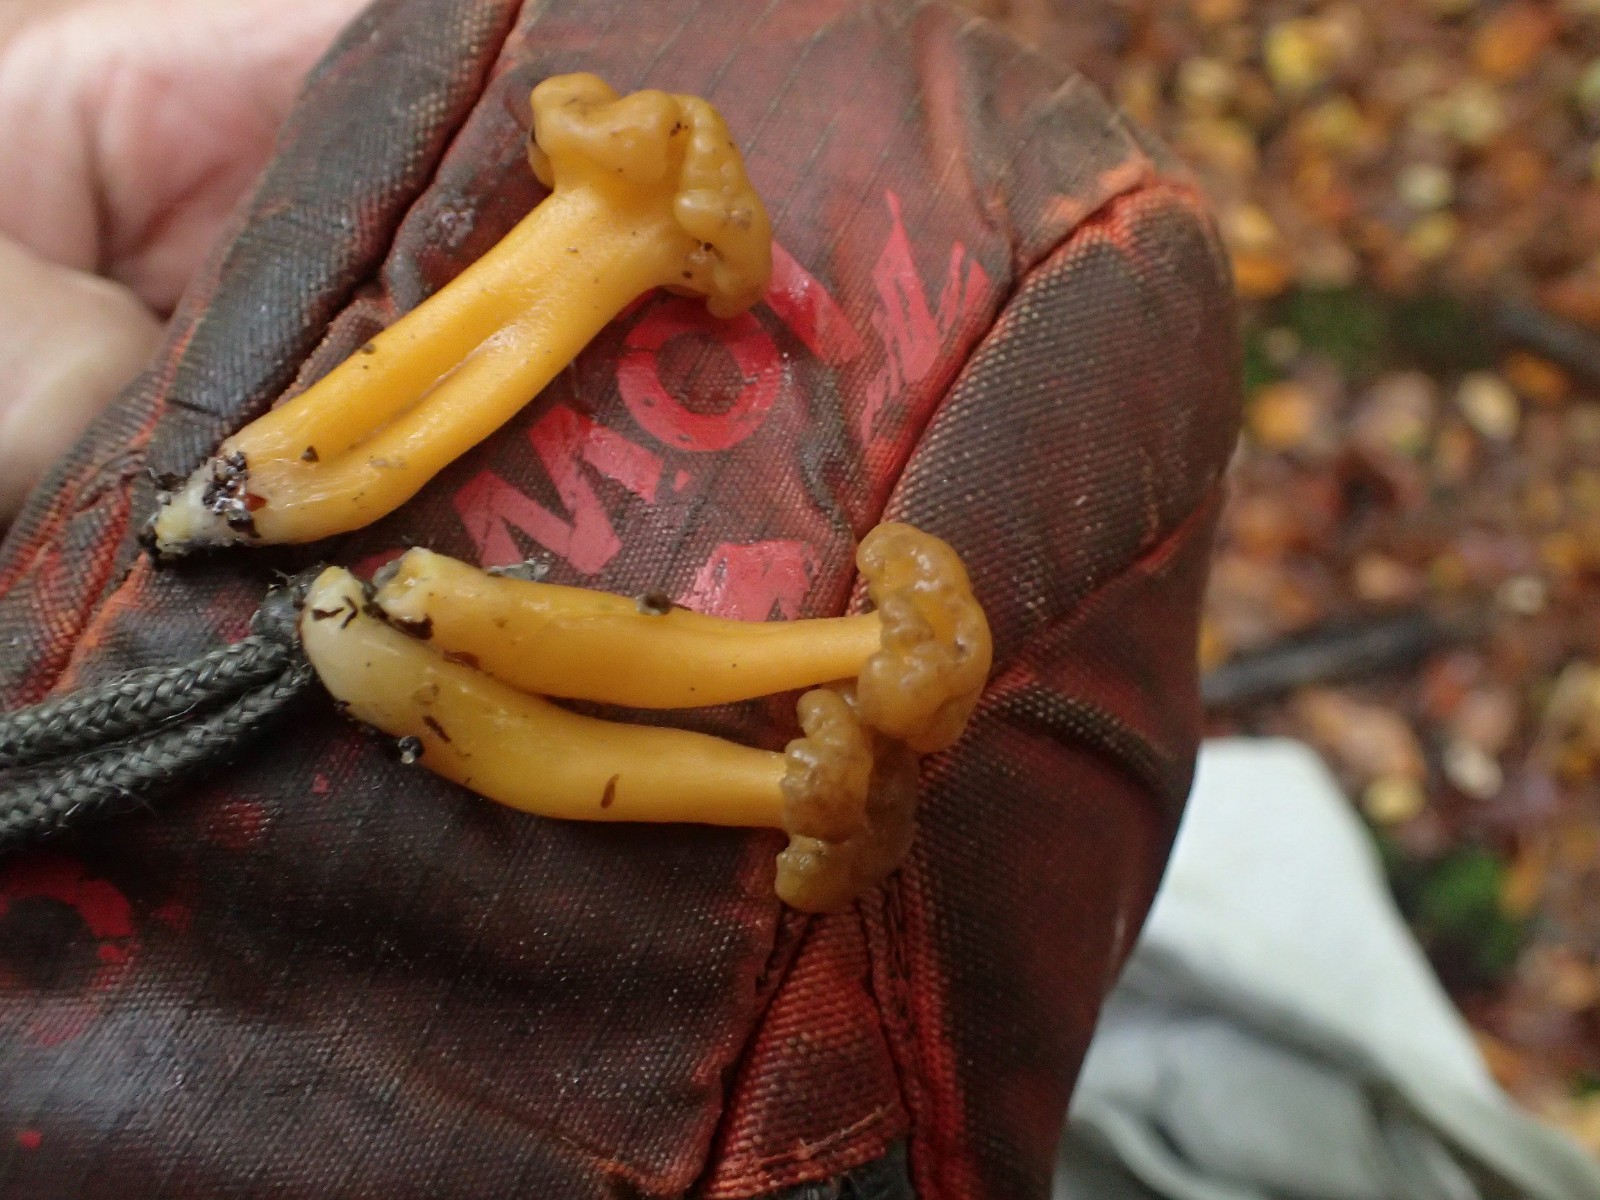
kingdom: Fungi
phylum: Ascomycota
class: Leotiomycetes
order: Leotiales
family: Leotiaceae
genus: Leotia
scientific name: Leotia lubrica
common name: ravsvamp
